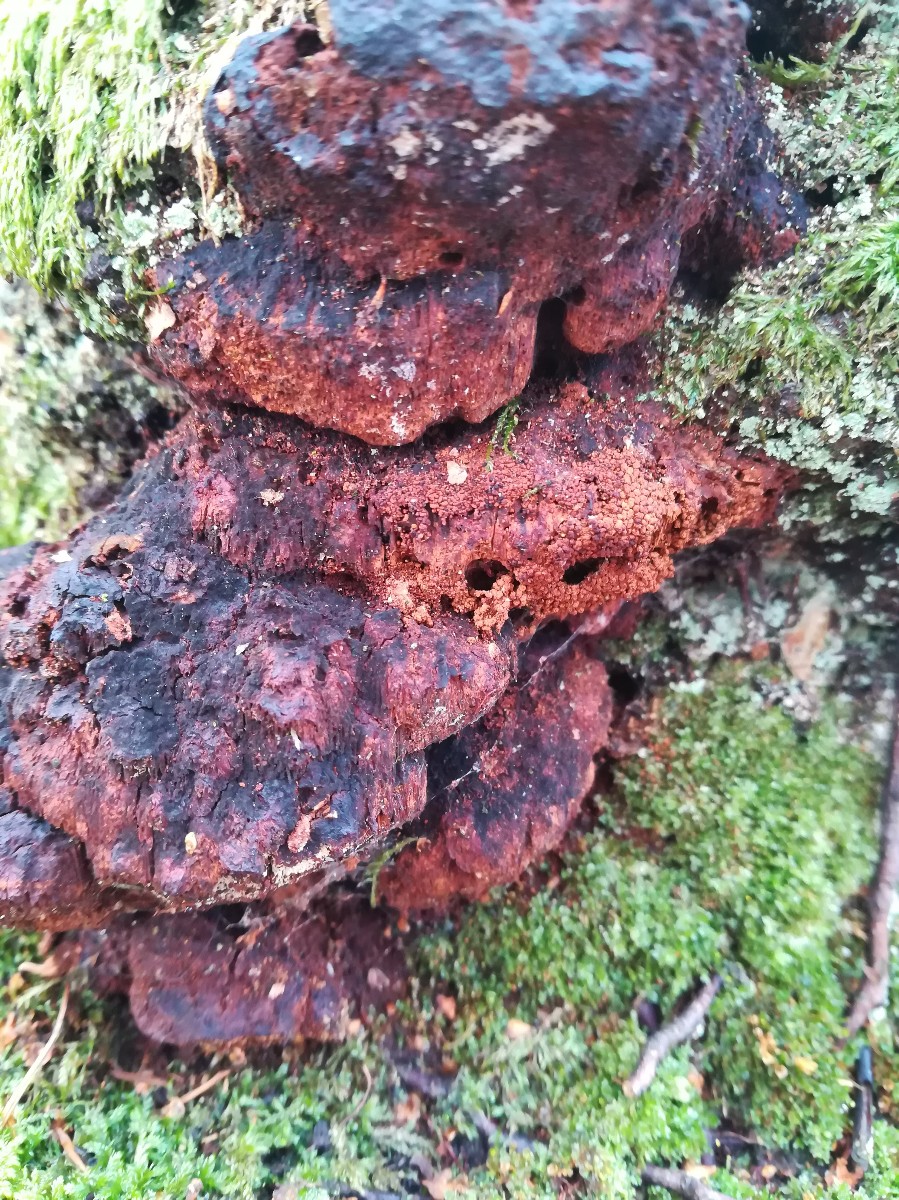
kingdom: Fungi
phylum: Basidiomycota
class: Agaricomycetes
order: Hymenochaetales
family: Hymenochaetaceae
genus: Xanthoporia
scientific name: Xanthoporia radiata
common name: elle-spejlporesvamp
